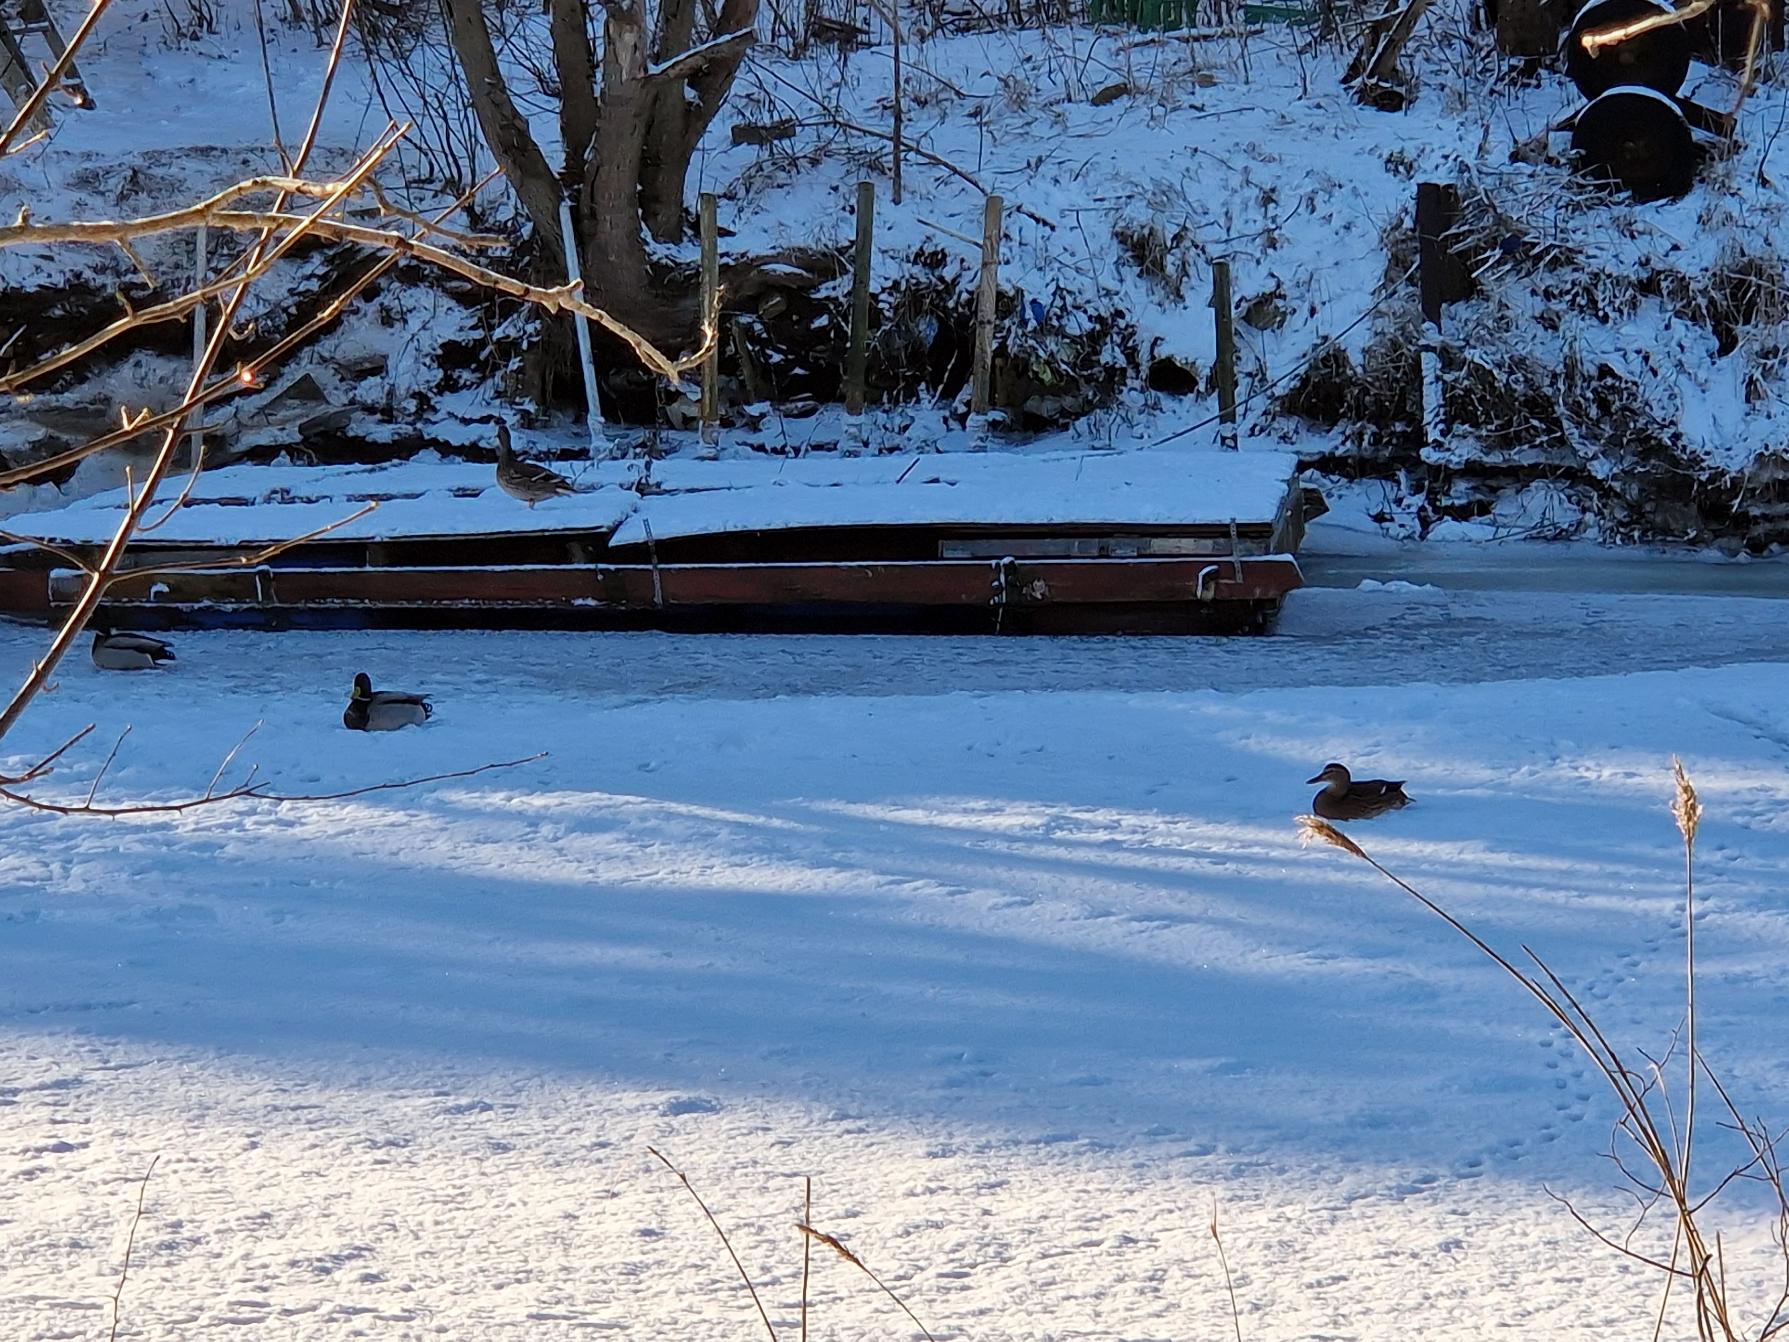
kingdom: Animalia
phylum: Chordata
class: Aves
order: Anseriformes
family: Anatidae
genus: Anas
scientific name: Anas platyrhynchos
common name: Gråand
